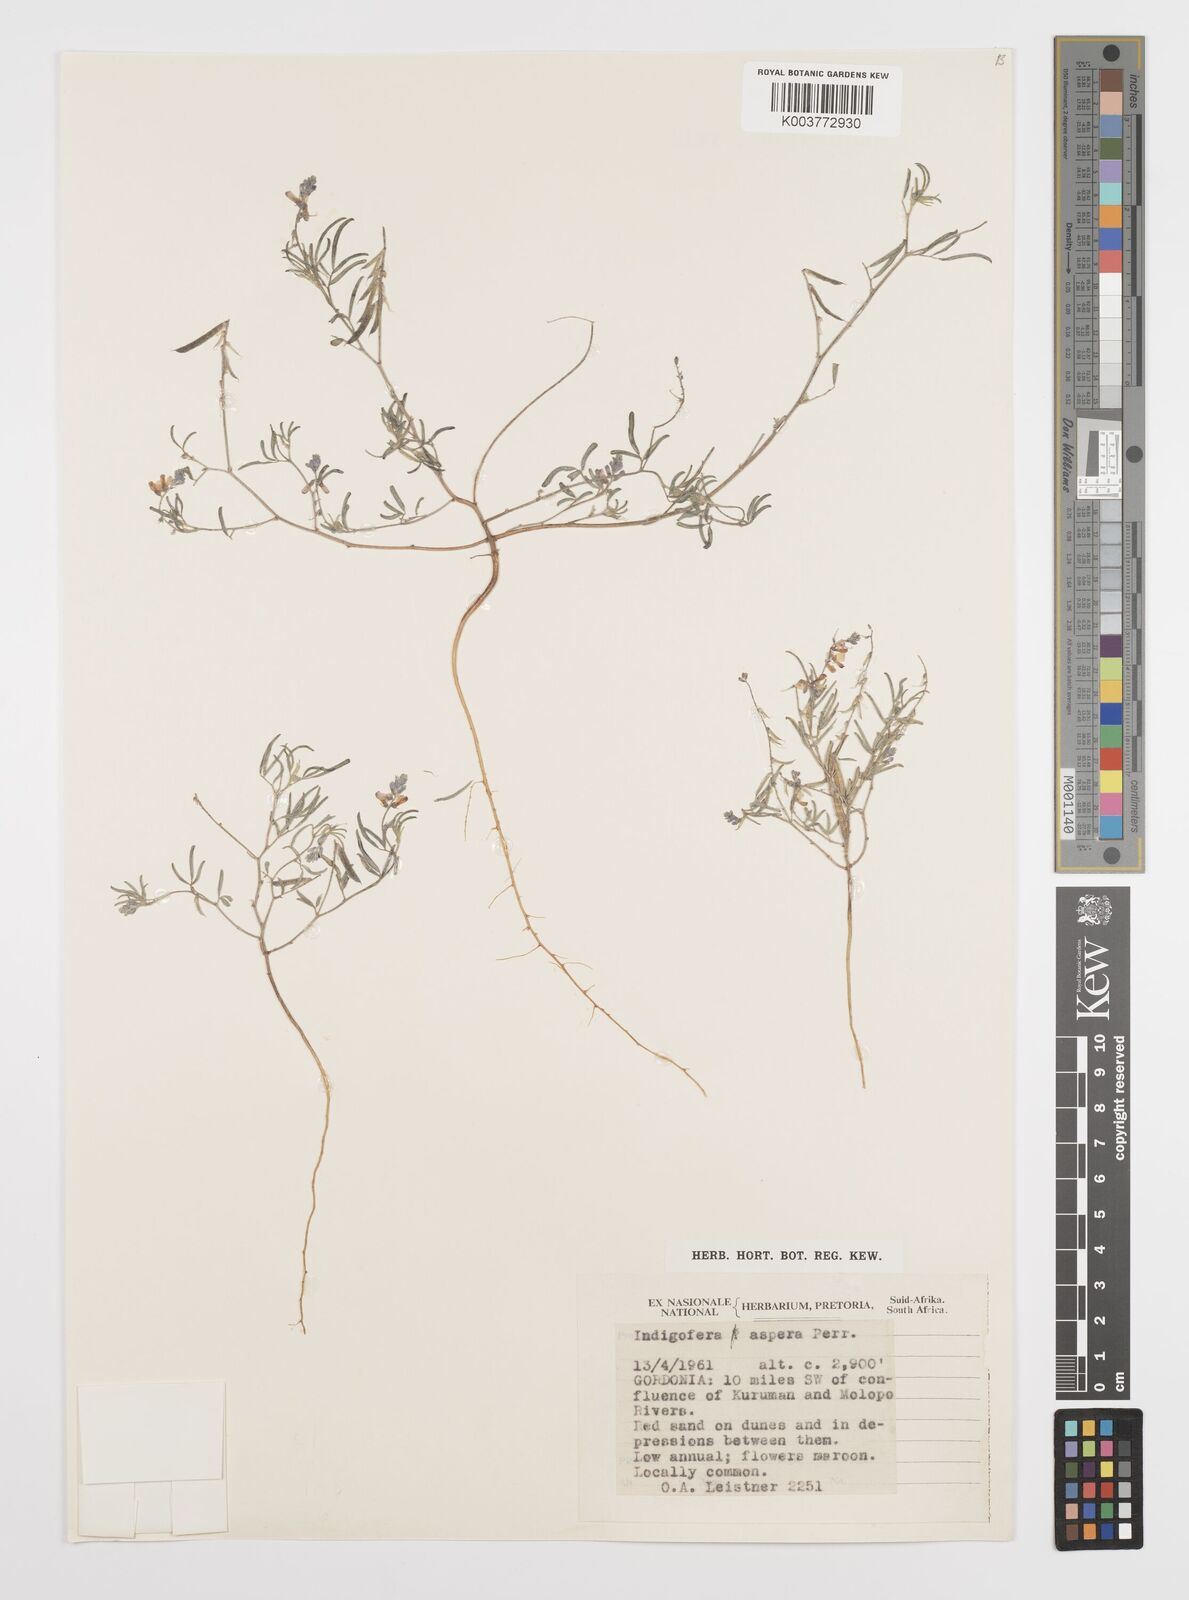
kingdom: Plantae
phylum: Tracheophyta
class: Magnoliopsida
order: Fabales
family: Fabaceae
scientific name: Fabaceae
